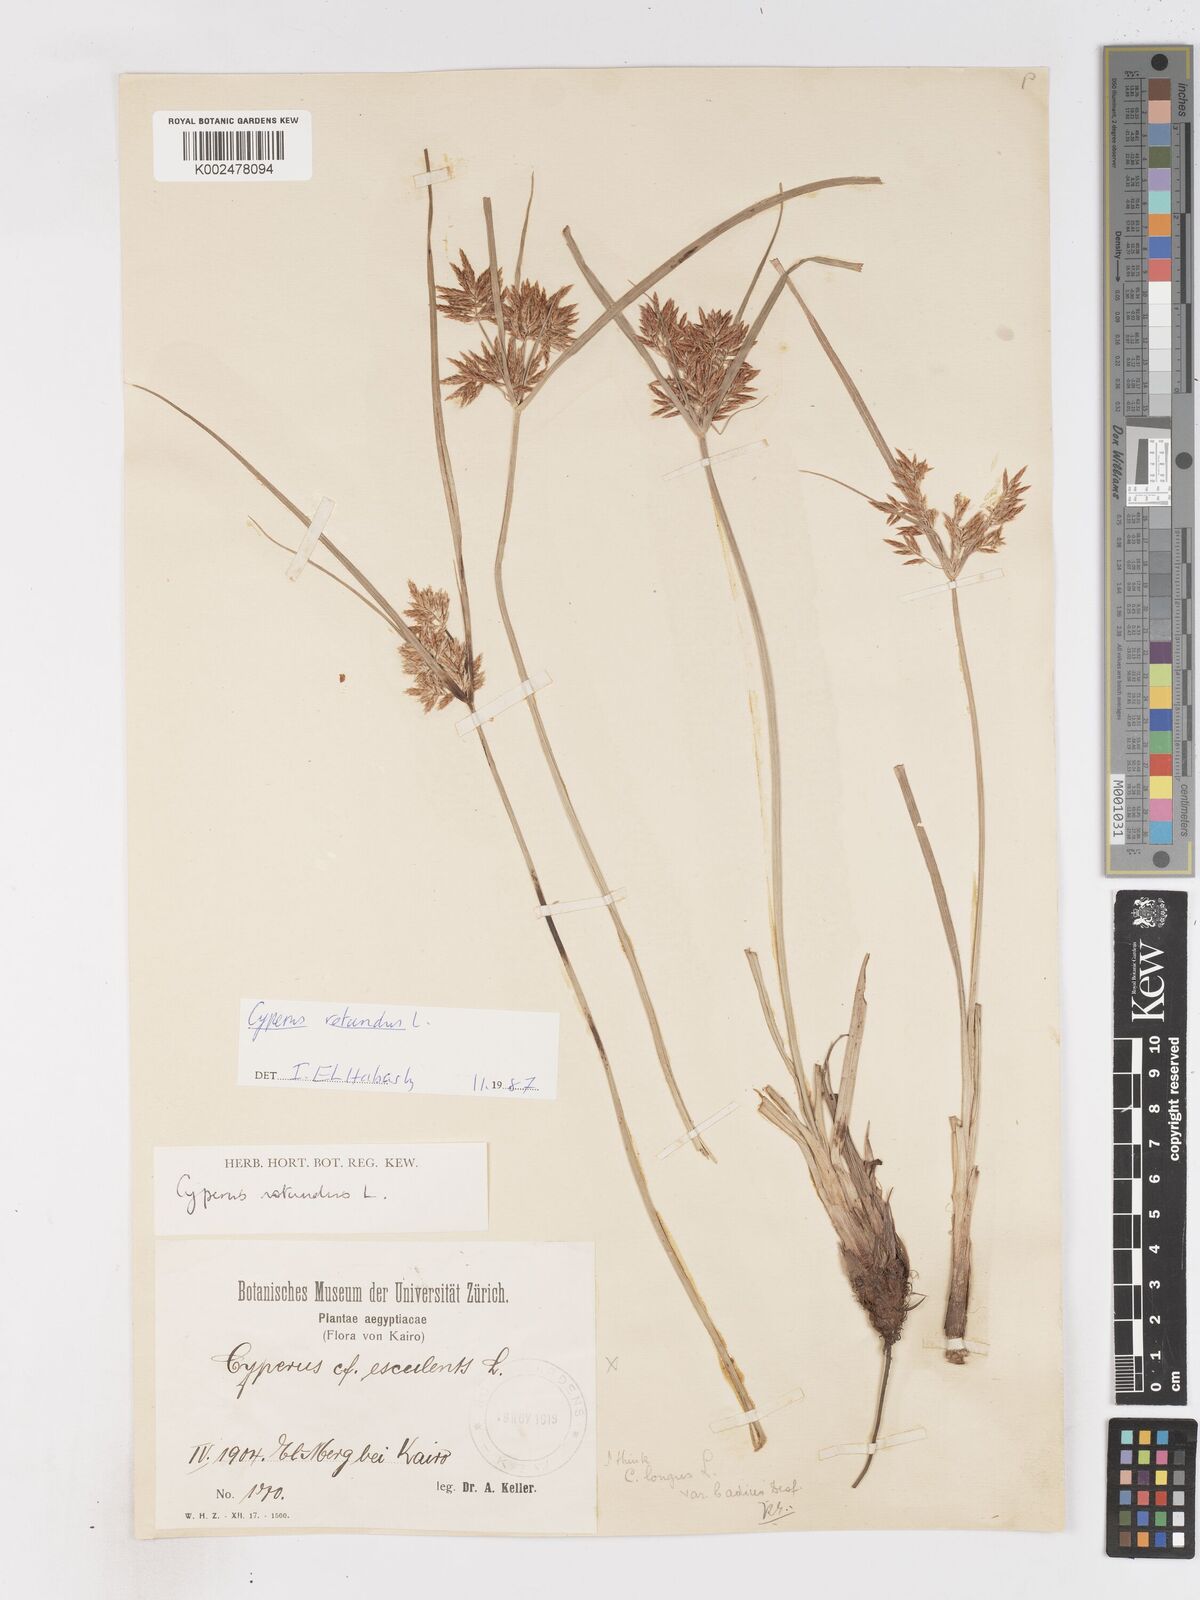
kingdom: Plantae
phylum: Tracheophyta
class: Liliopsida
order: Poales
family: Cyperaceae
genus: Cyperus
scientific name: Cyperus rotundus
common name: Nutgrass
